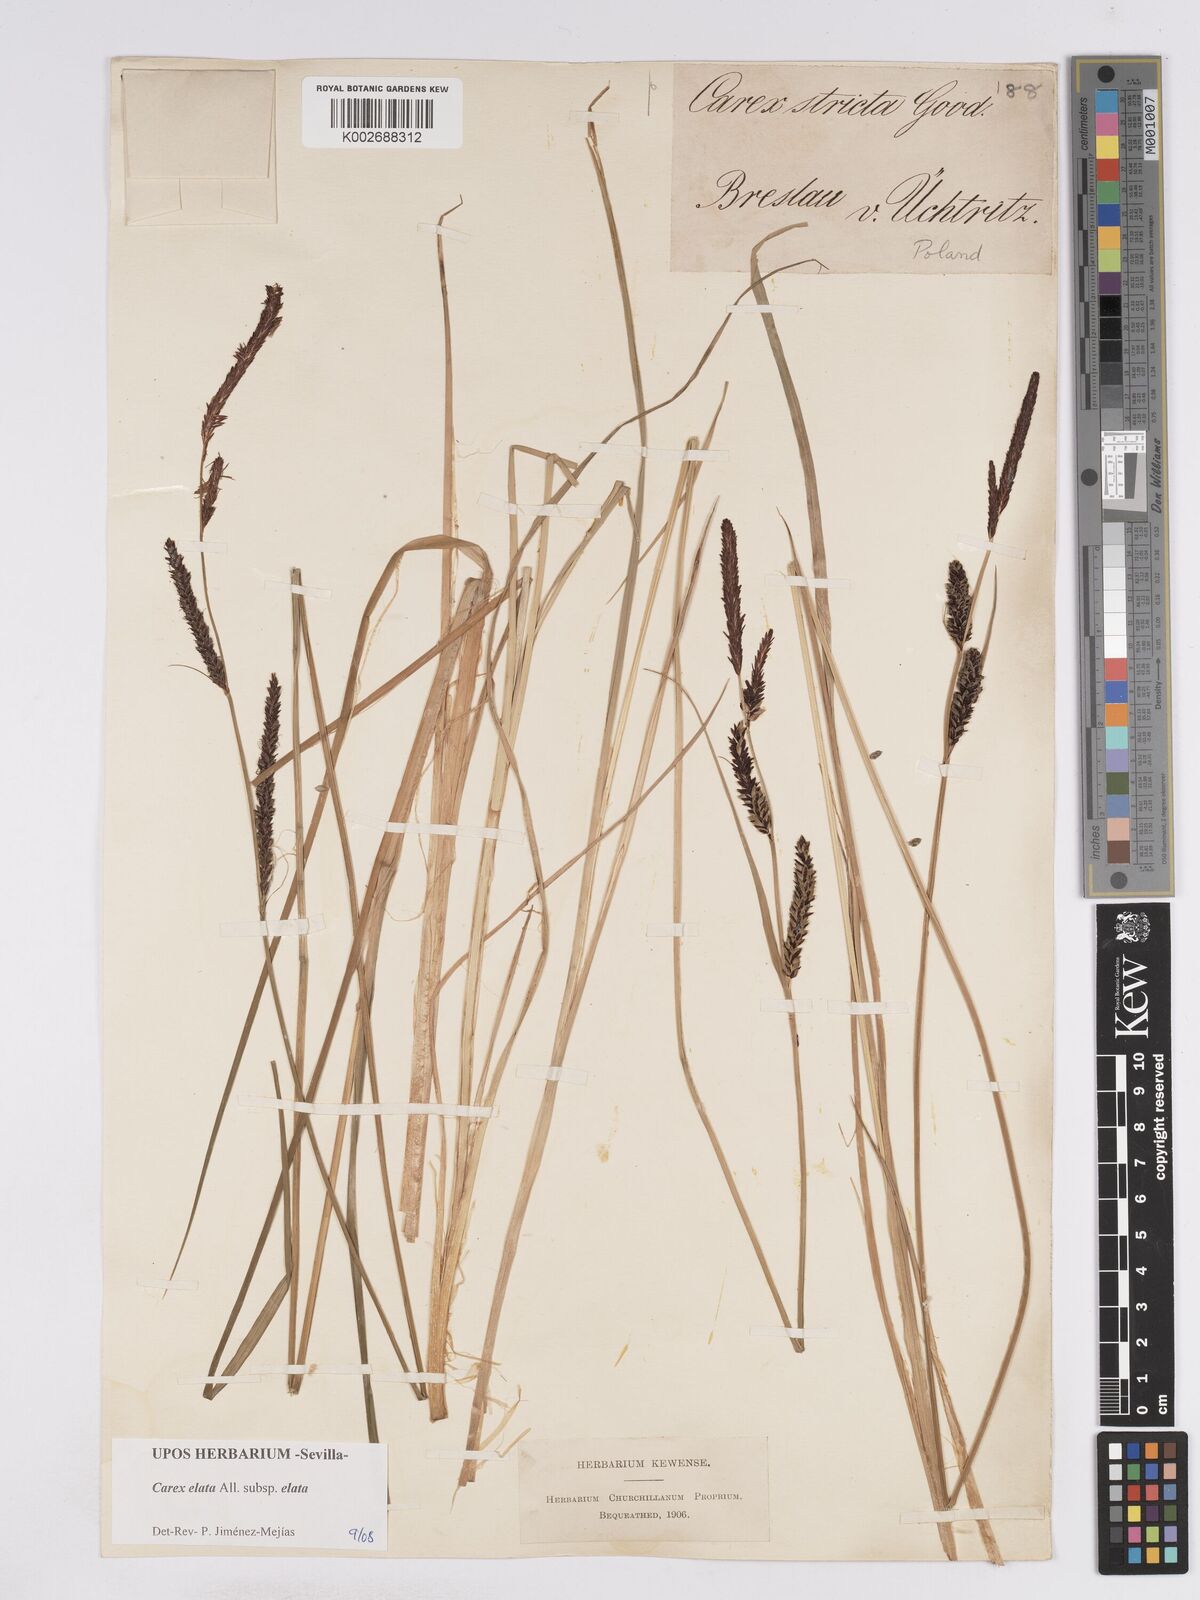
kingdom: Plantae
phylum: Tracheophyta
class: Liliopsida
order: Poales
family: Cyperaceae
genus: Carex
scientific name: Carex elata
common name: Tufted sedge
